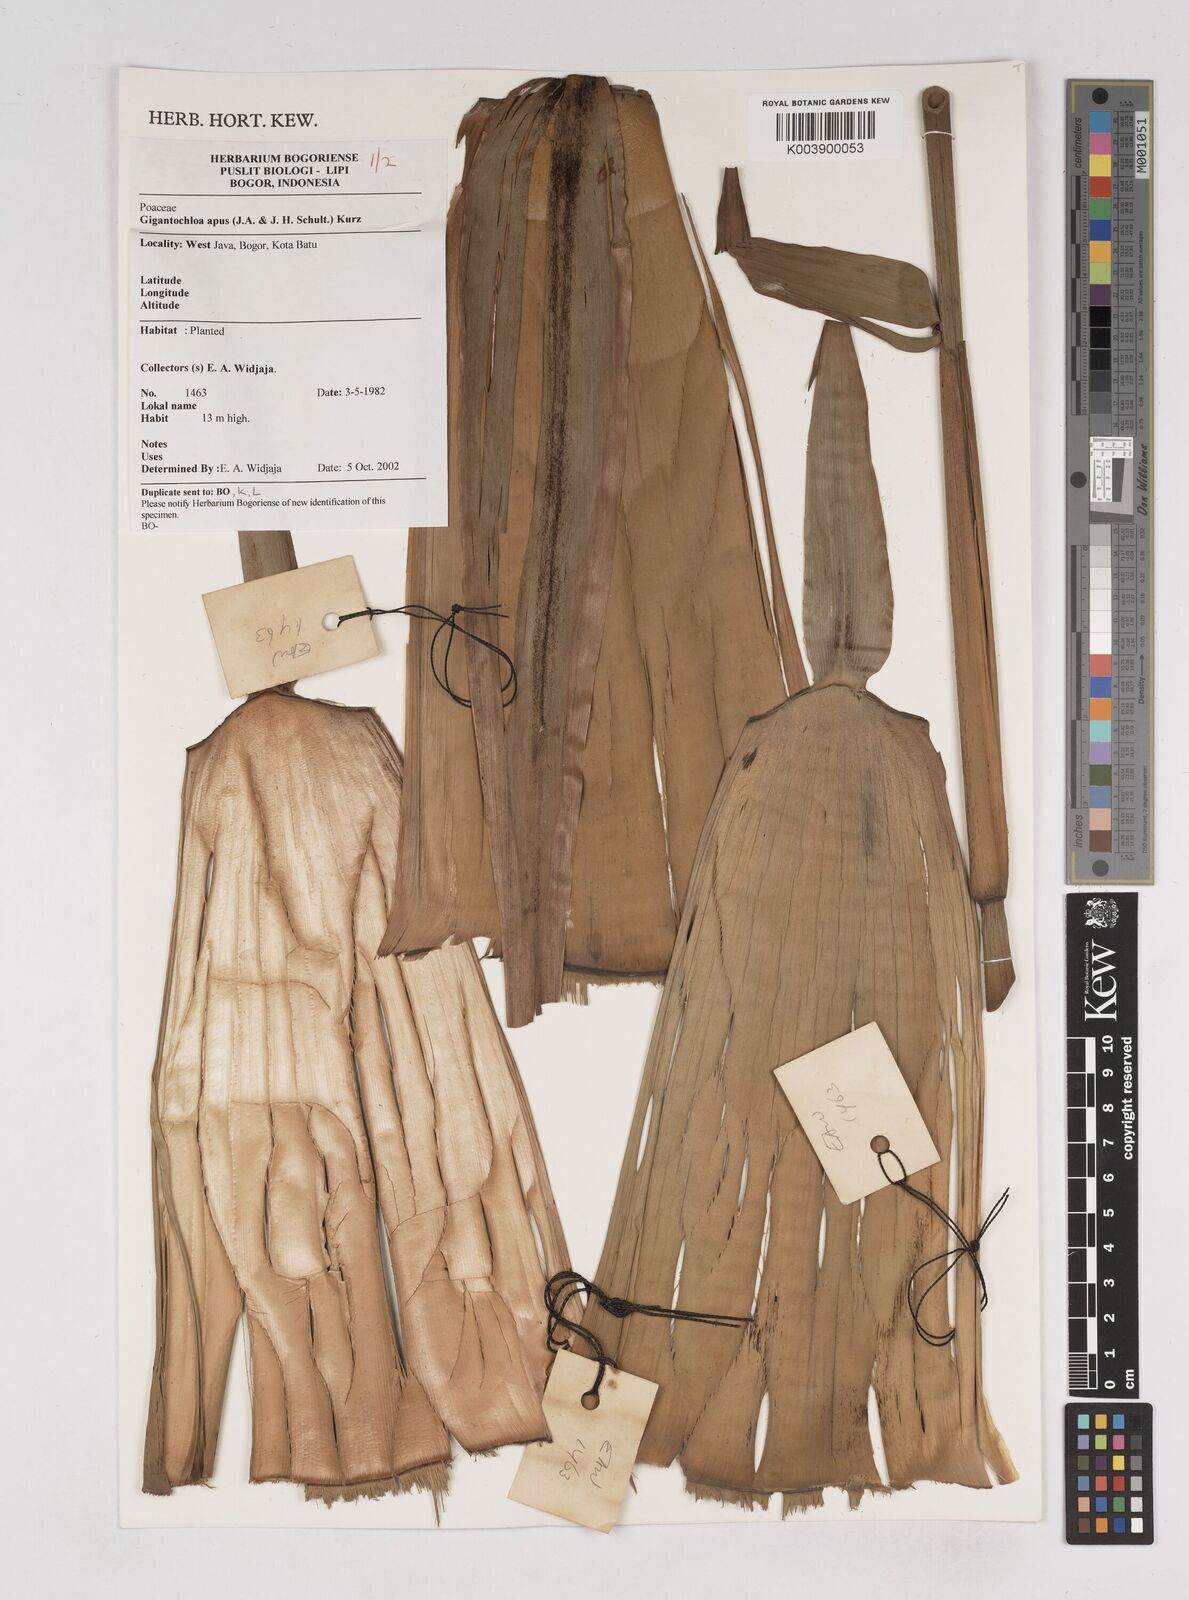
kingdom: Plantae
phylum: Tracheophyta
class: Liliopsida
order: Poales
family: Poaceae
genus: Gigantochloa
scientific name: Gigantochloa apus
